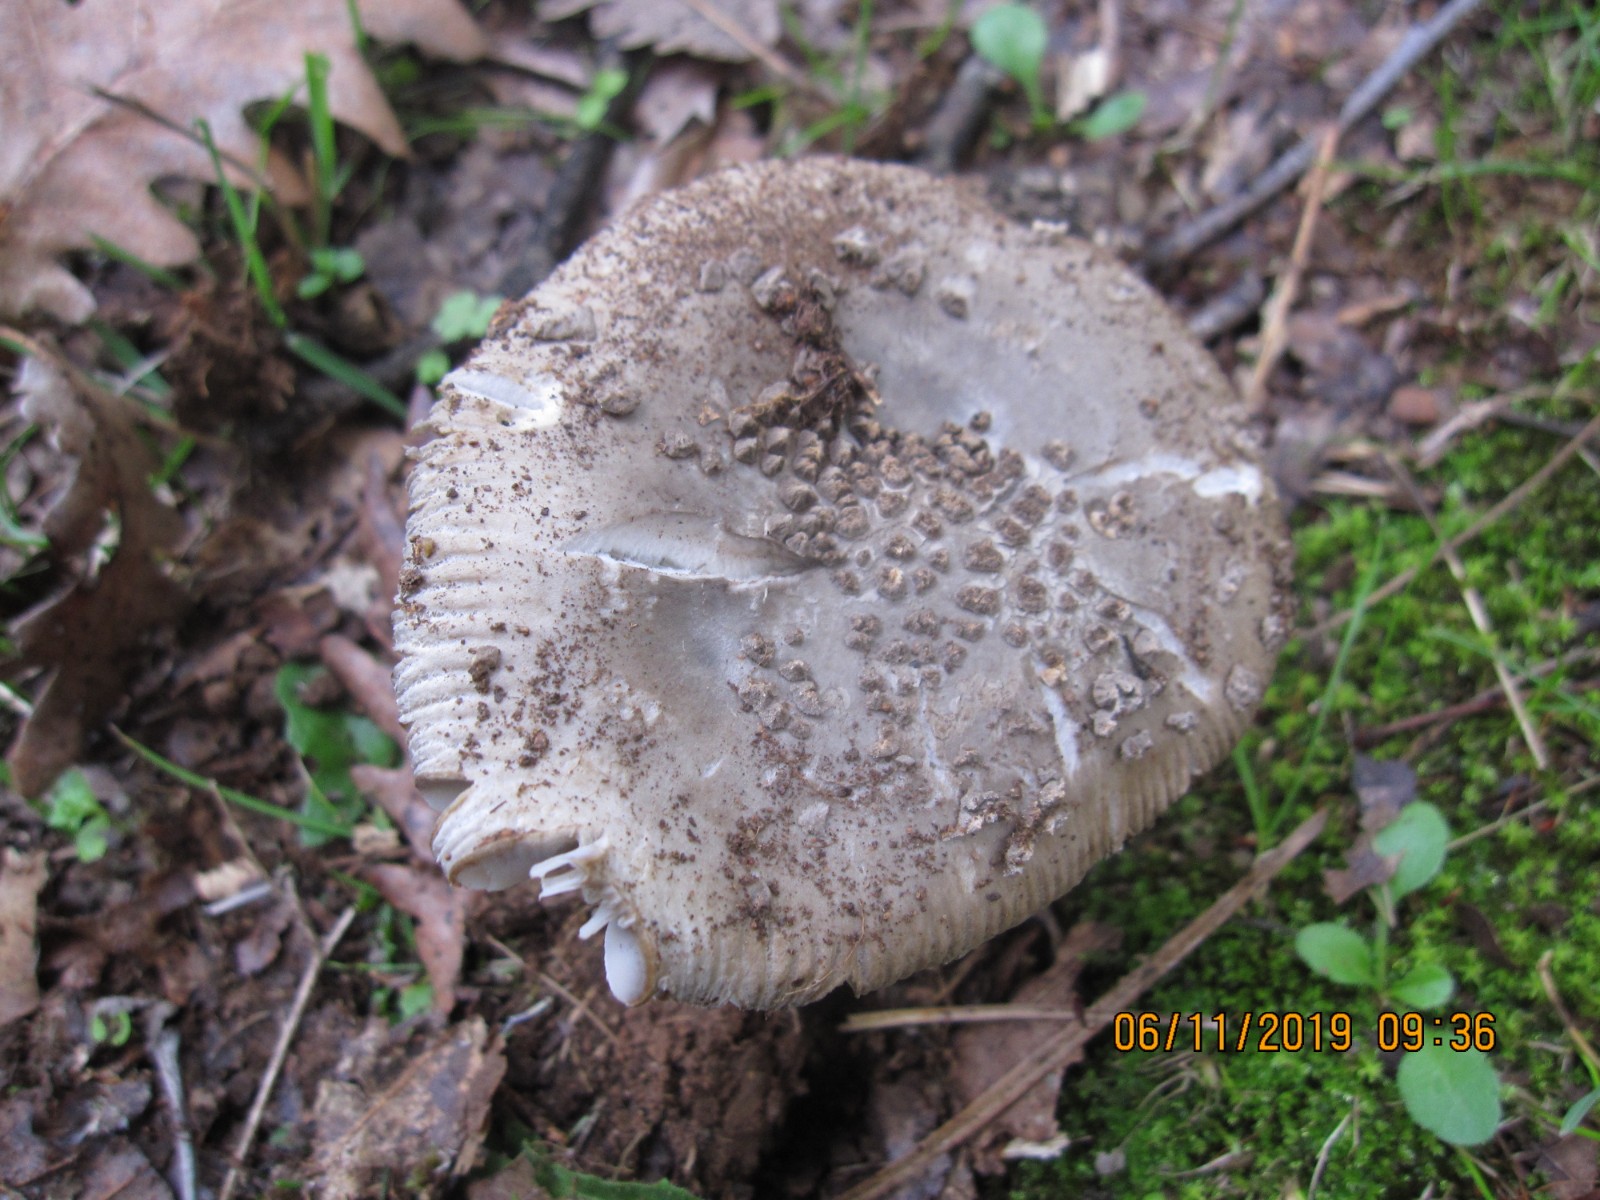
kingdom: Fungi
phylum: Basidiomycota
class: Agaricomycetes
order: Agaricales
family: Amanitaceae
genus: Amanita
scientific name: Amanita ceciliae
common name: stor kam-fluesvamp
